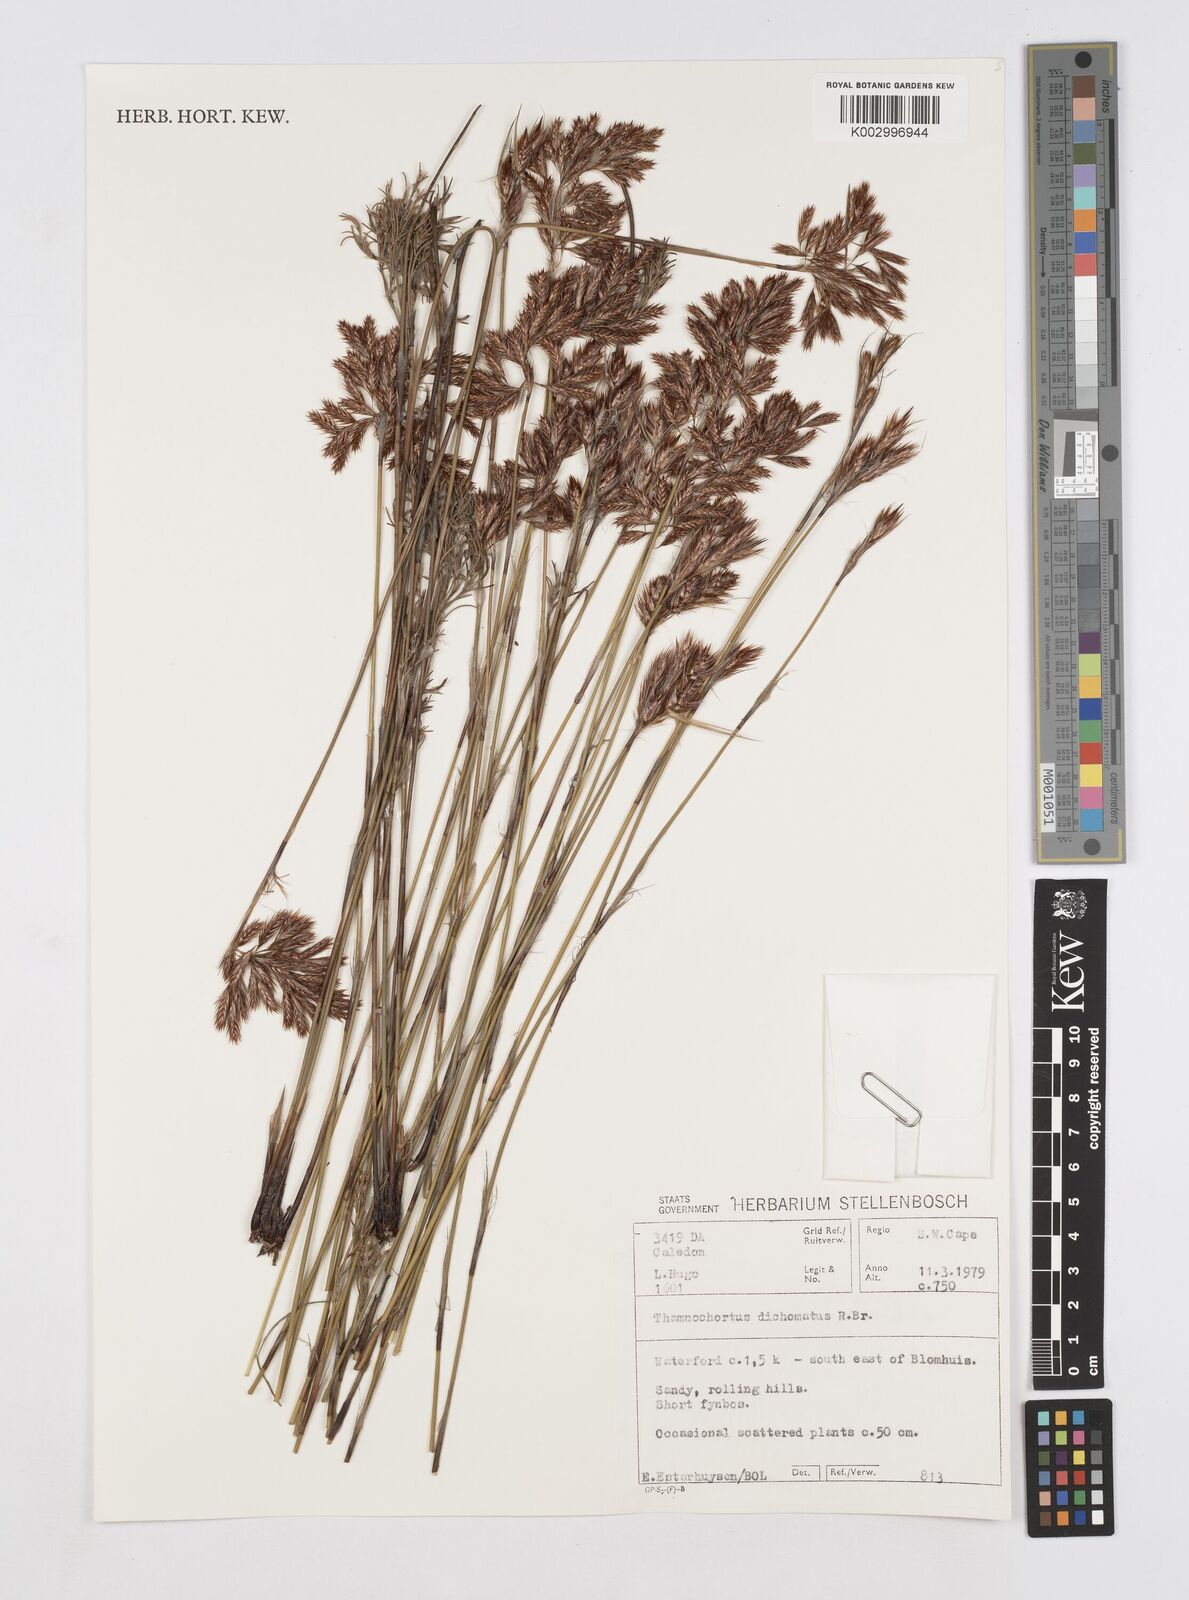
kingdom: Plantae
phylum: Tracheophyta
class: Liliopsida
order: Poales
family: Restionaceae
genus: Thamnochortus
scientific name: Thamnochortus lucens
